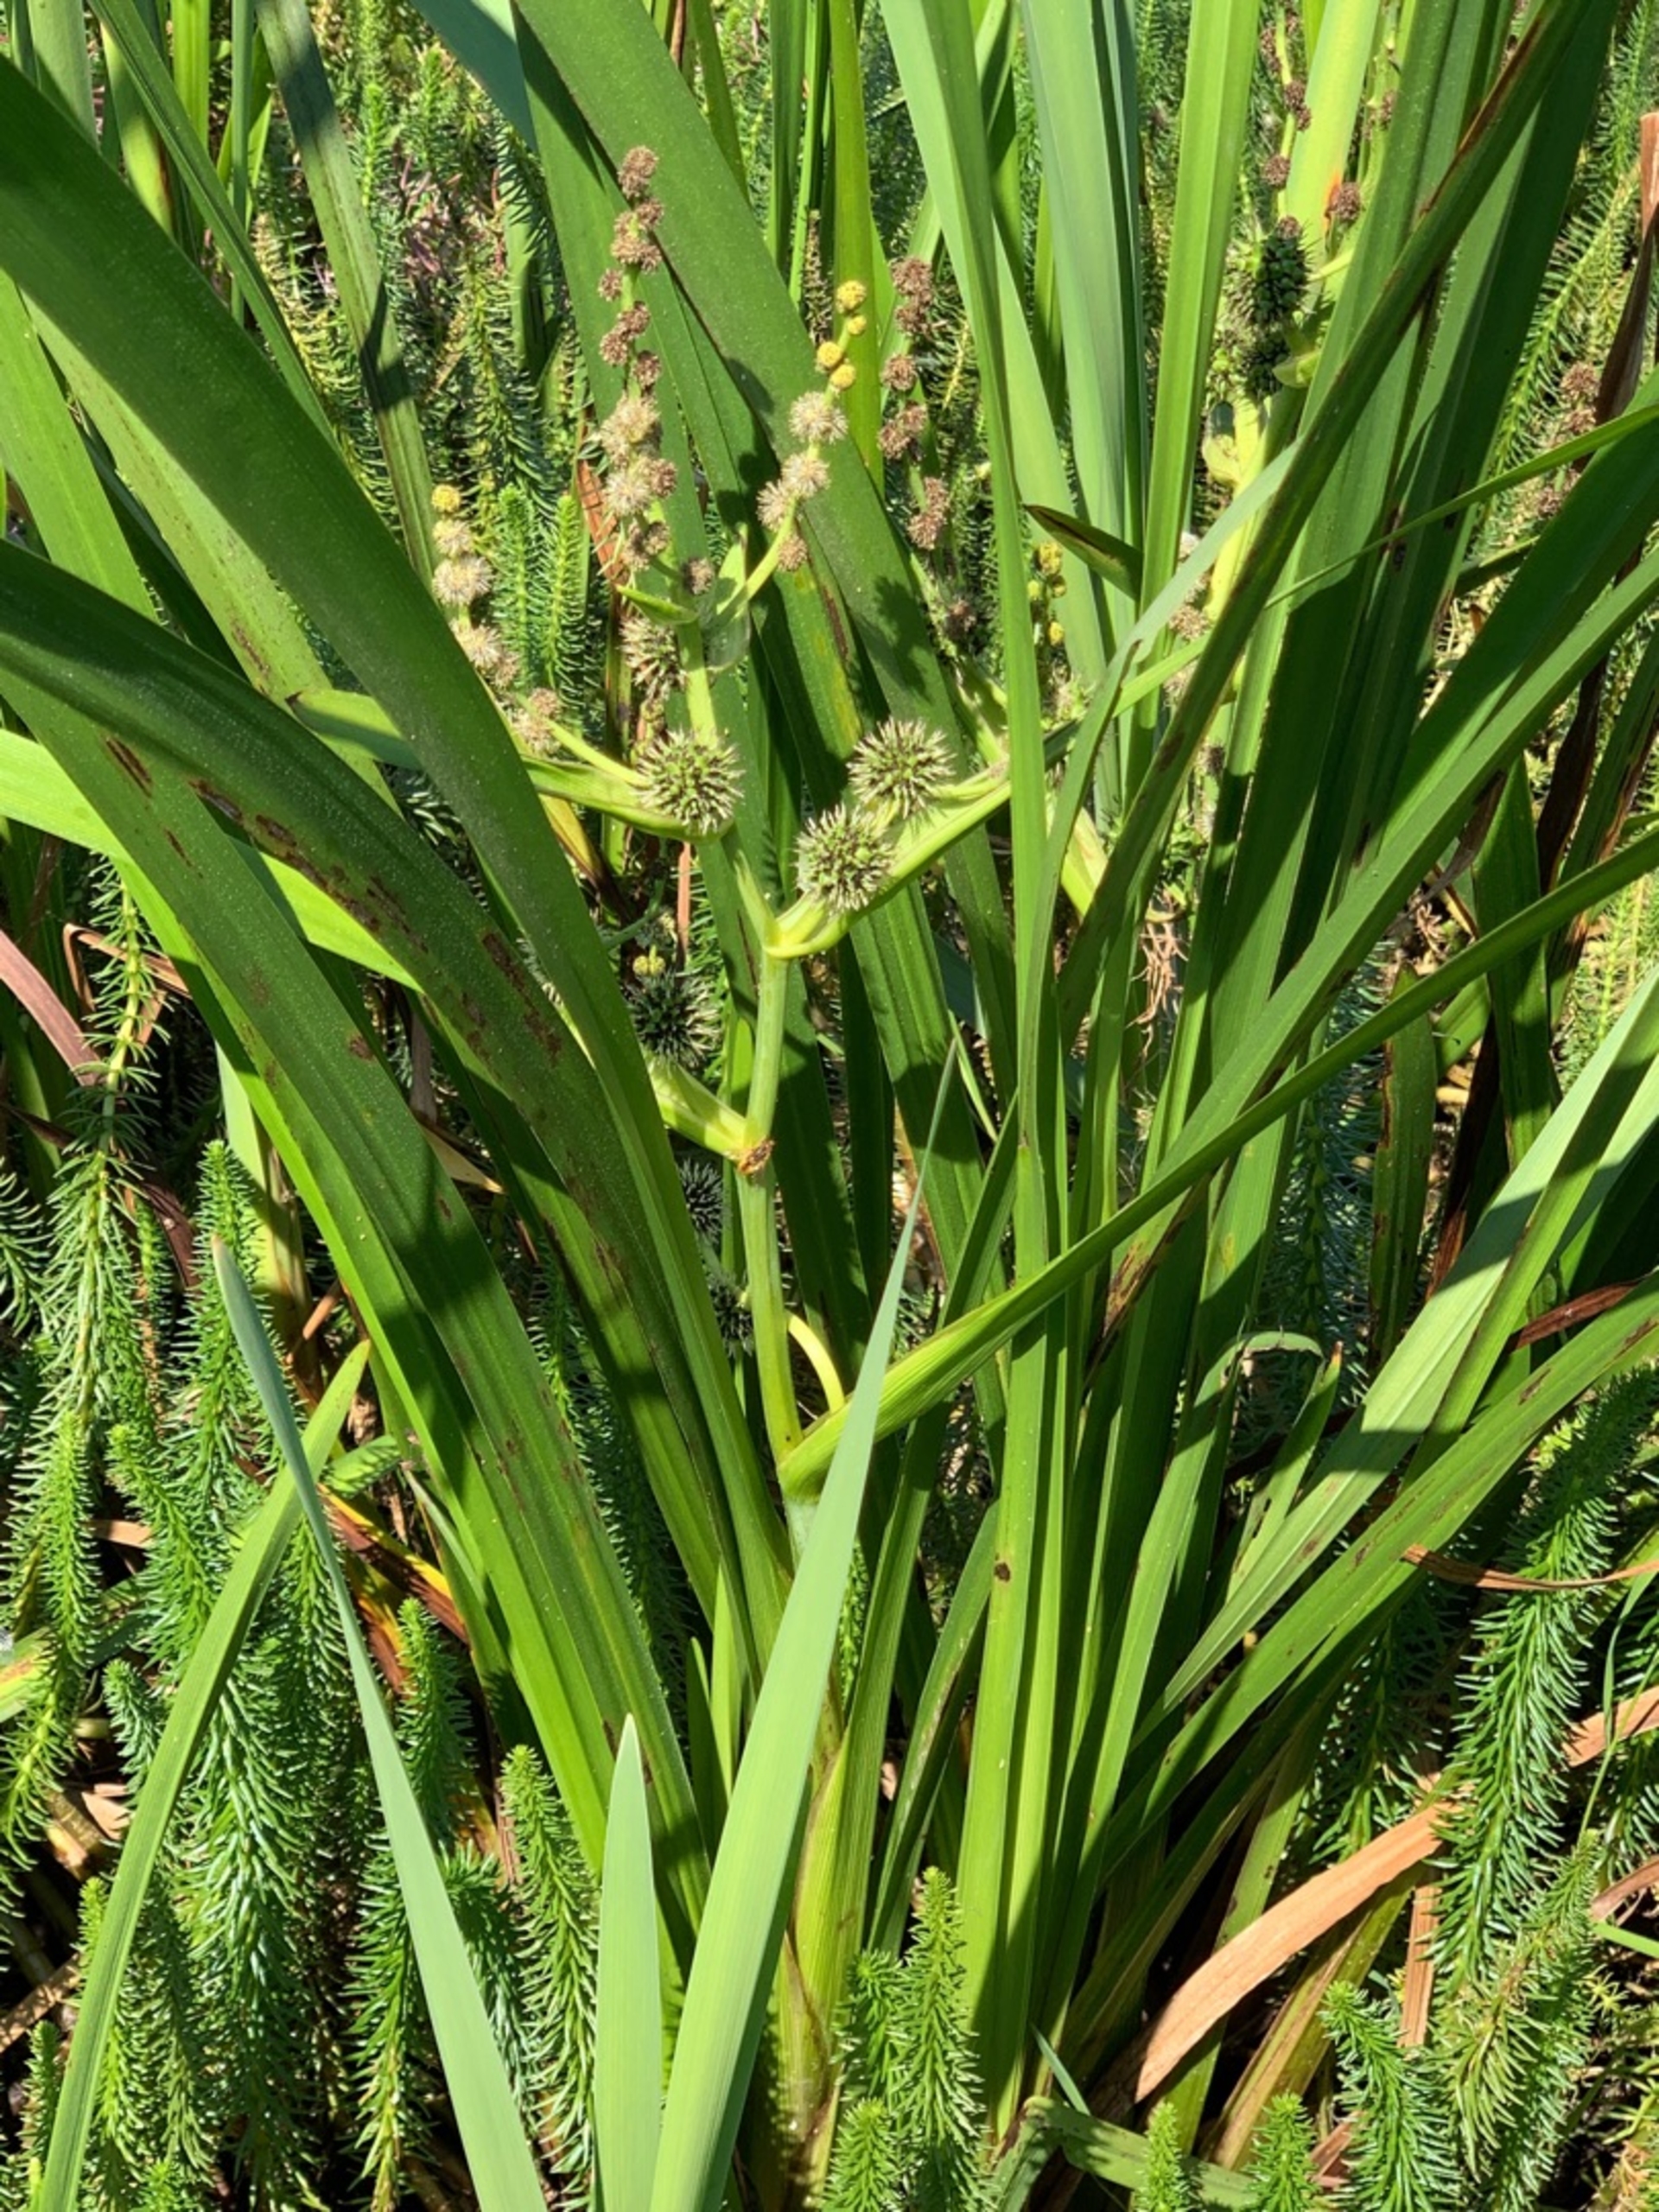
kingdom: Plantae
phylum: Tracheophyta
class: Liliopsida
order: Poales
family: Typhaceae
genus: Sparganium
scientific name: Sparganium erectum
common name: Grenet pindsvineknop
